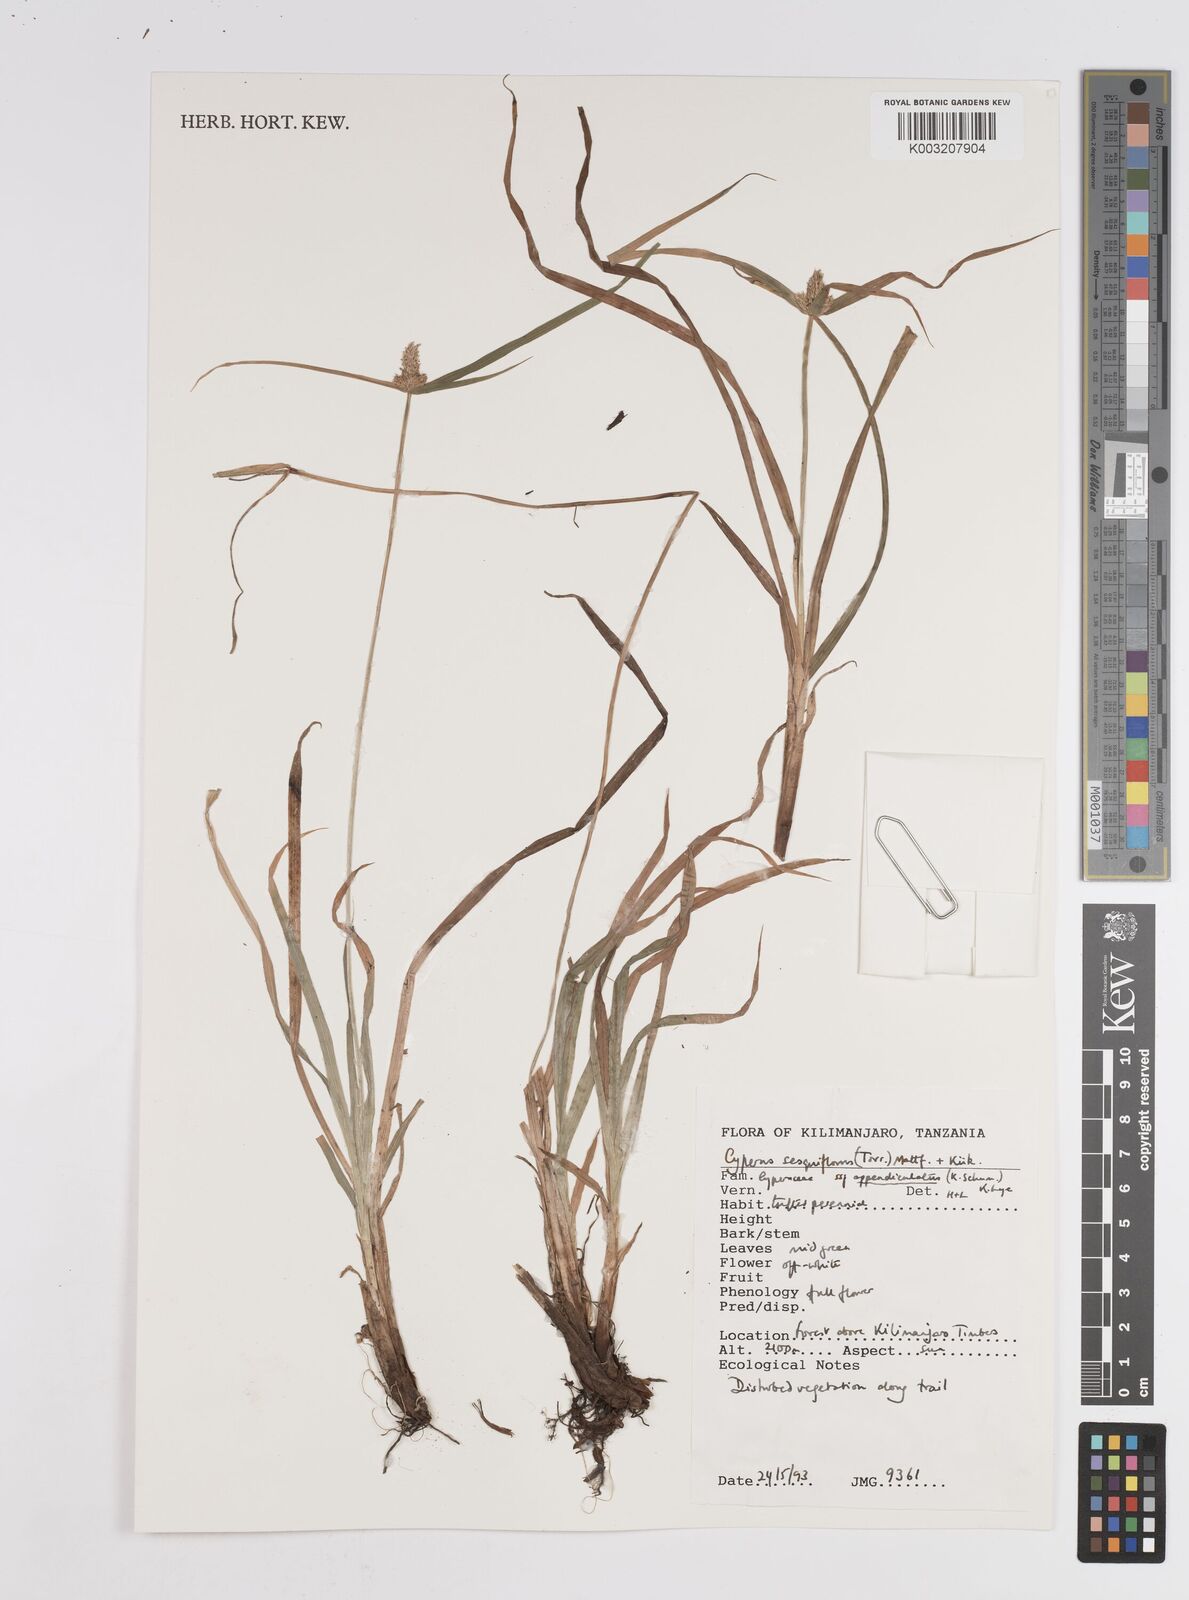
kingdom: Plantae
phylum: Tracheophyta
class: Liliopsida
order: Poales
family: Cyperaceae
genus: Cyperus
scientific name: Cyperus
